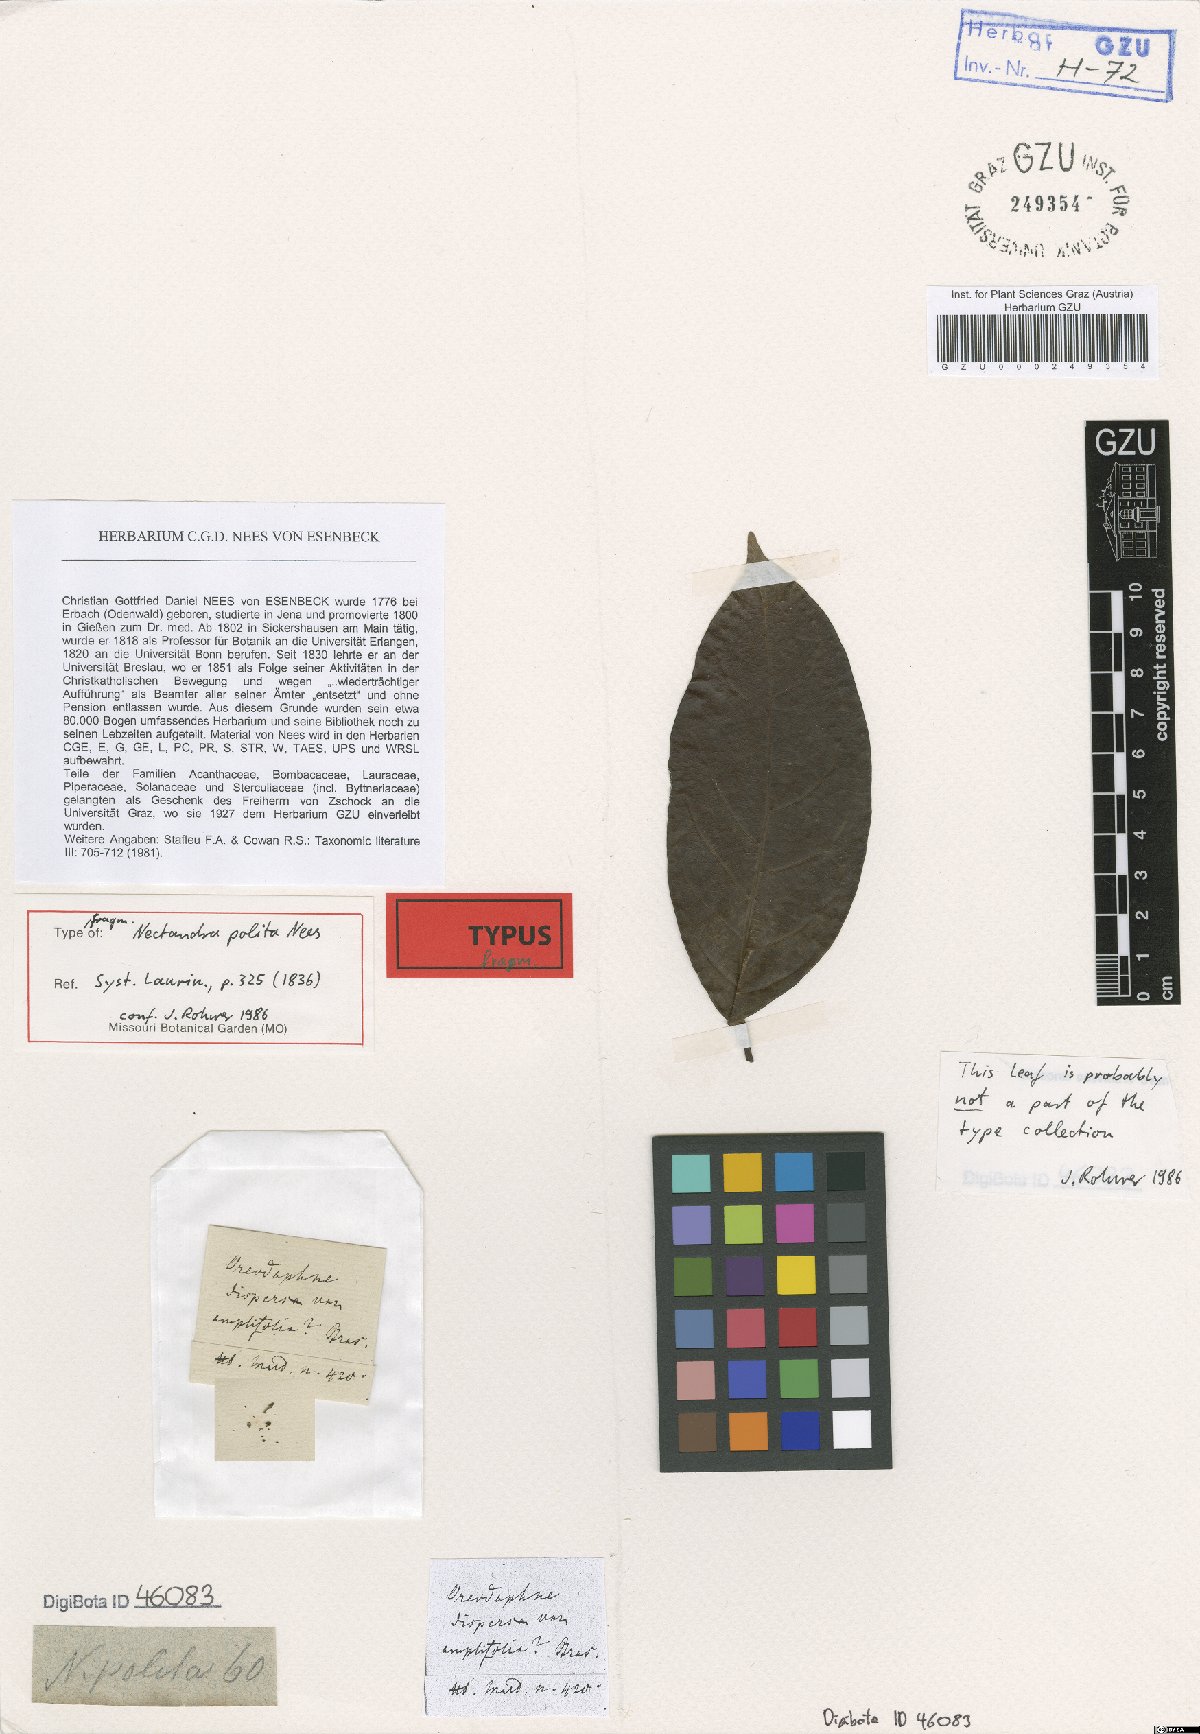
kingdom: Plantae
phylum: Tracheophyta
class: Magnoliopsida
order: Laurales
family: Lauraceae
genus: Damburneya
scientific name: Damburneya purpurea
